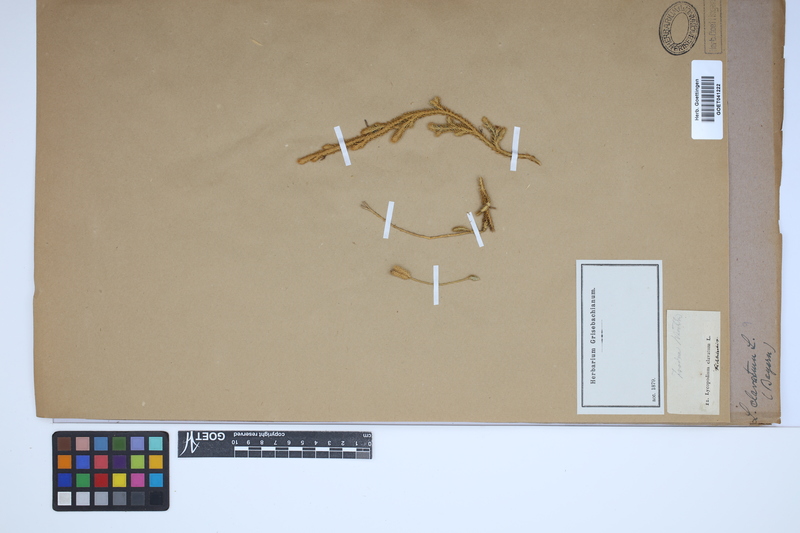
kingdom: Plantae
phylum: Tracheophyta
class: Lycopodiopsida
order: Lycopodiales
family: Lycopodiaceae
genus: Lycopodium
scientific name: Lycopodium clavatum
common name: Stag's-horn clubmoss
